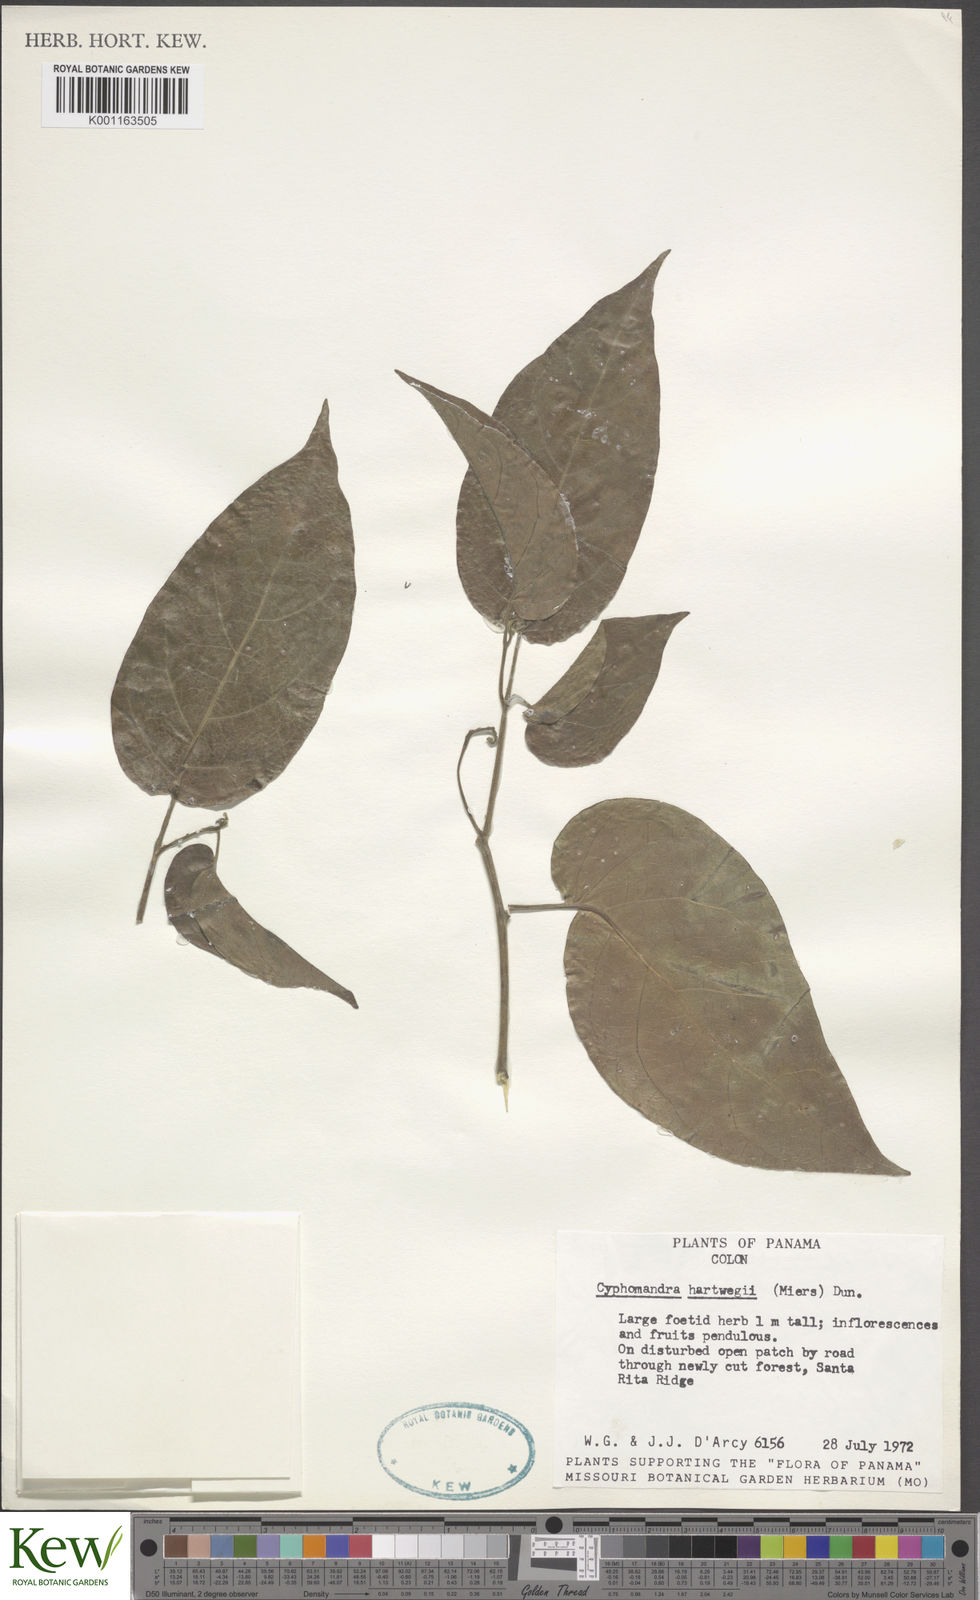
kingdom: Plantae
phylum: Tracheophyta
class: Magnoliopsida
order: Solanales
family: Solanaceae
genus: Solanum
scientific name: Solanum splendens
